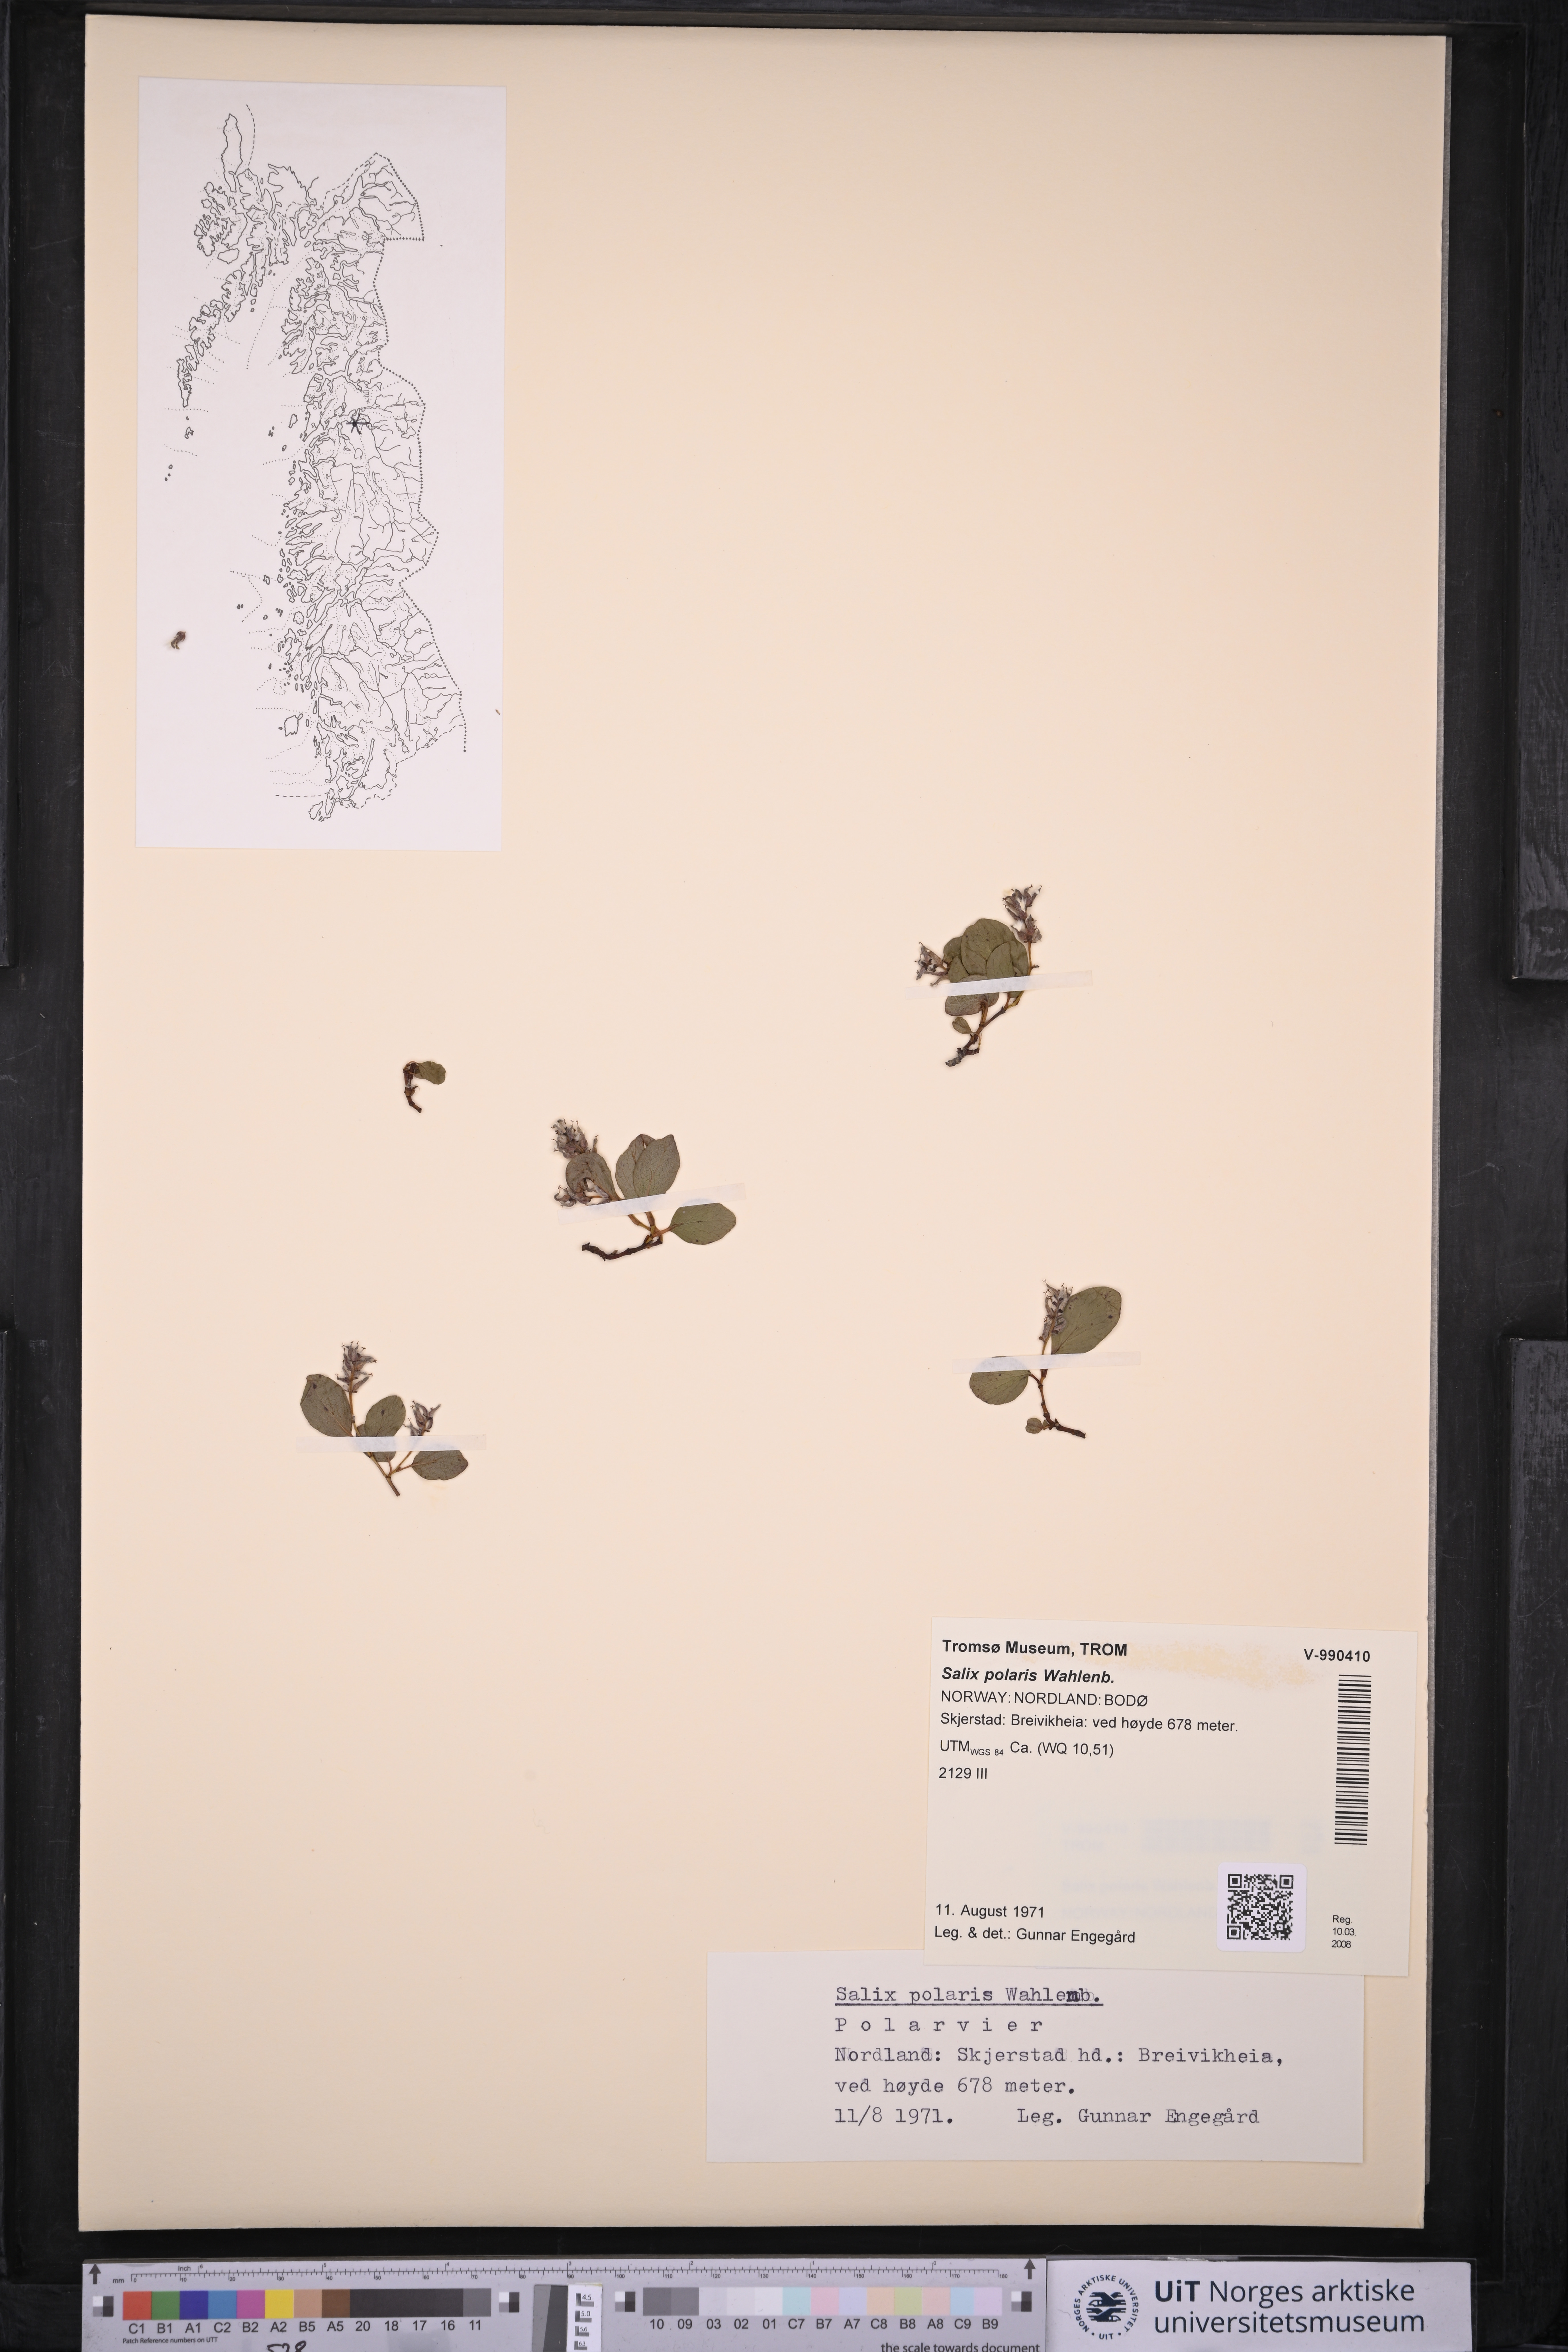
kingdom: Plantae
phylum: Tracheophyta
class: Magnoliopsida
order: Malpighiales
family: Salicaceae
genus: Salix
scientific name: Salix polaris
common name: Polar willow
